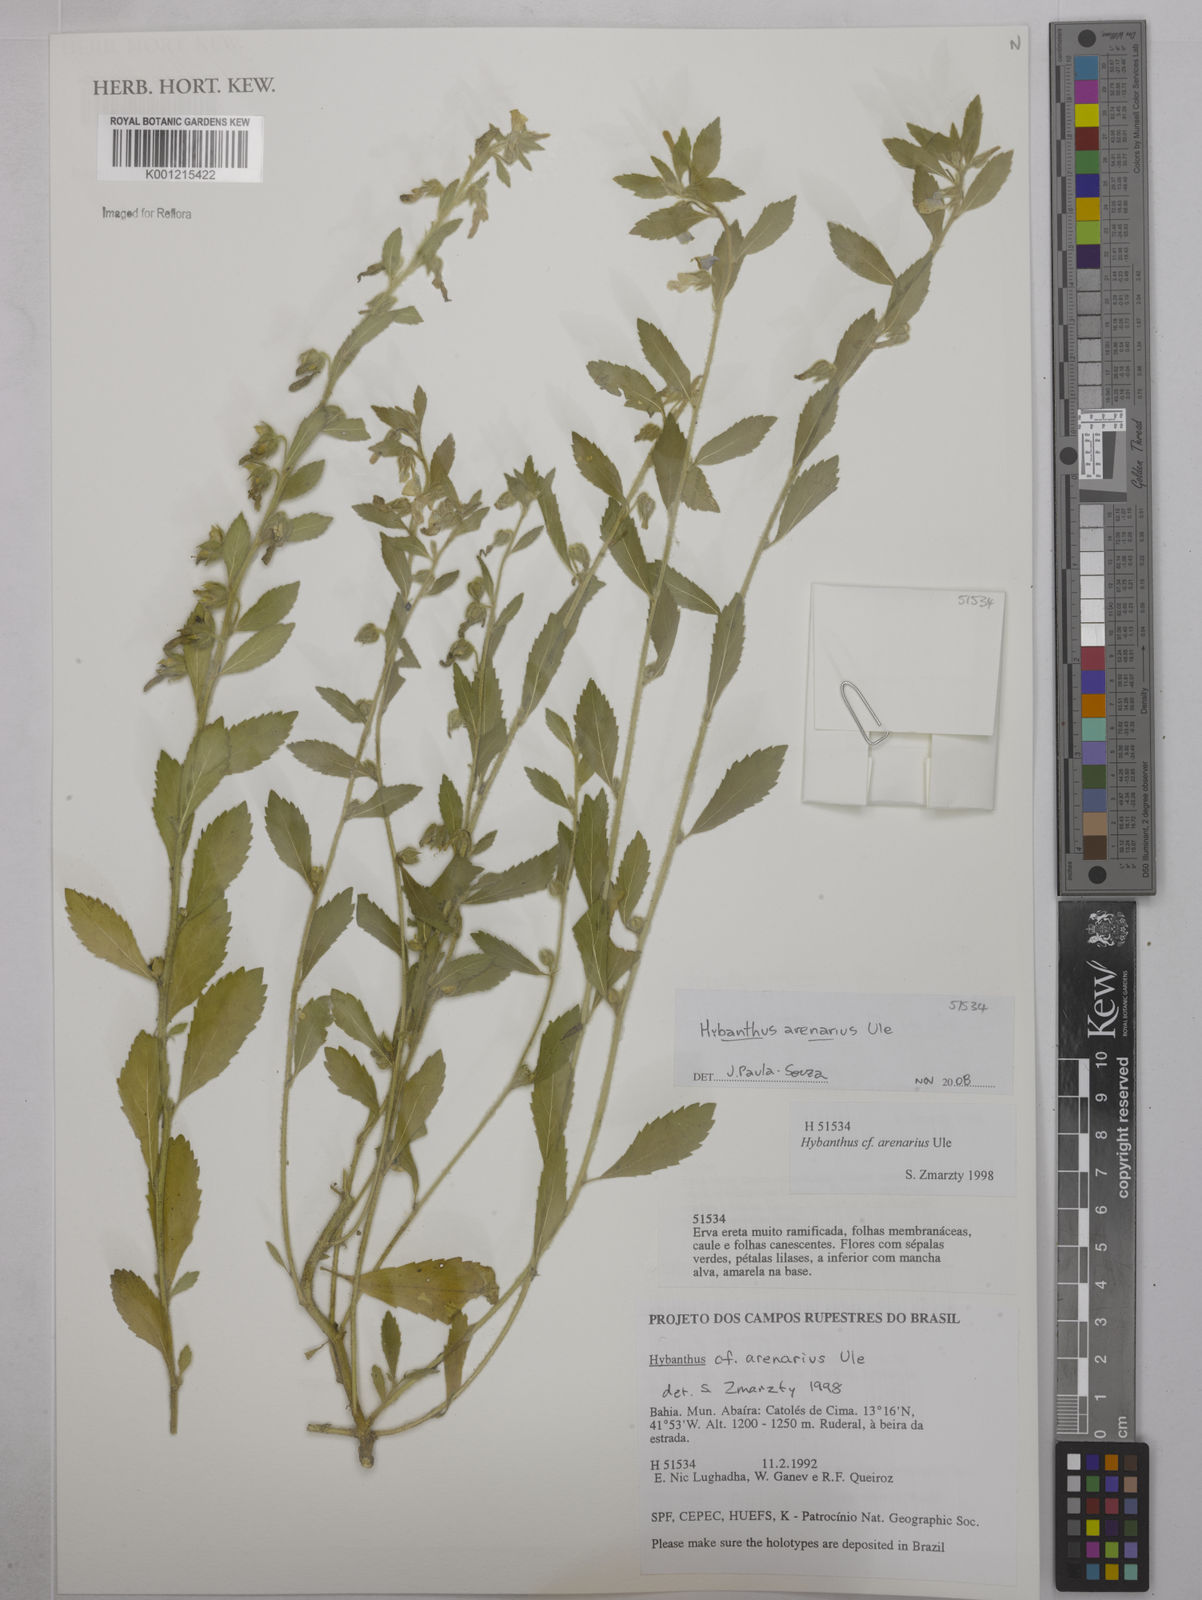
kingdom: Plantae
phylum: Tracheophyta
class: Magnoliopsida
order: Malpighiales
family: Violaceae
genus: Pombalia
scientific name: Pombalia arenaria
